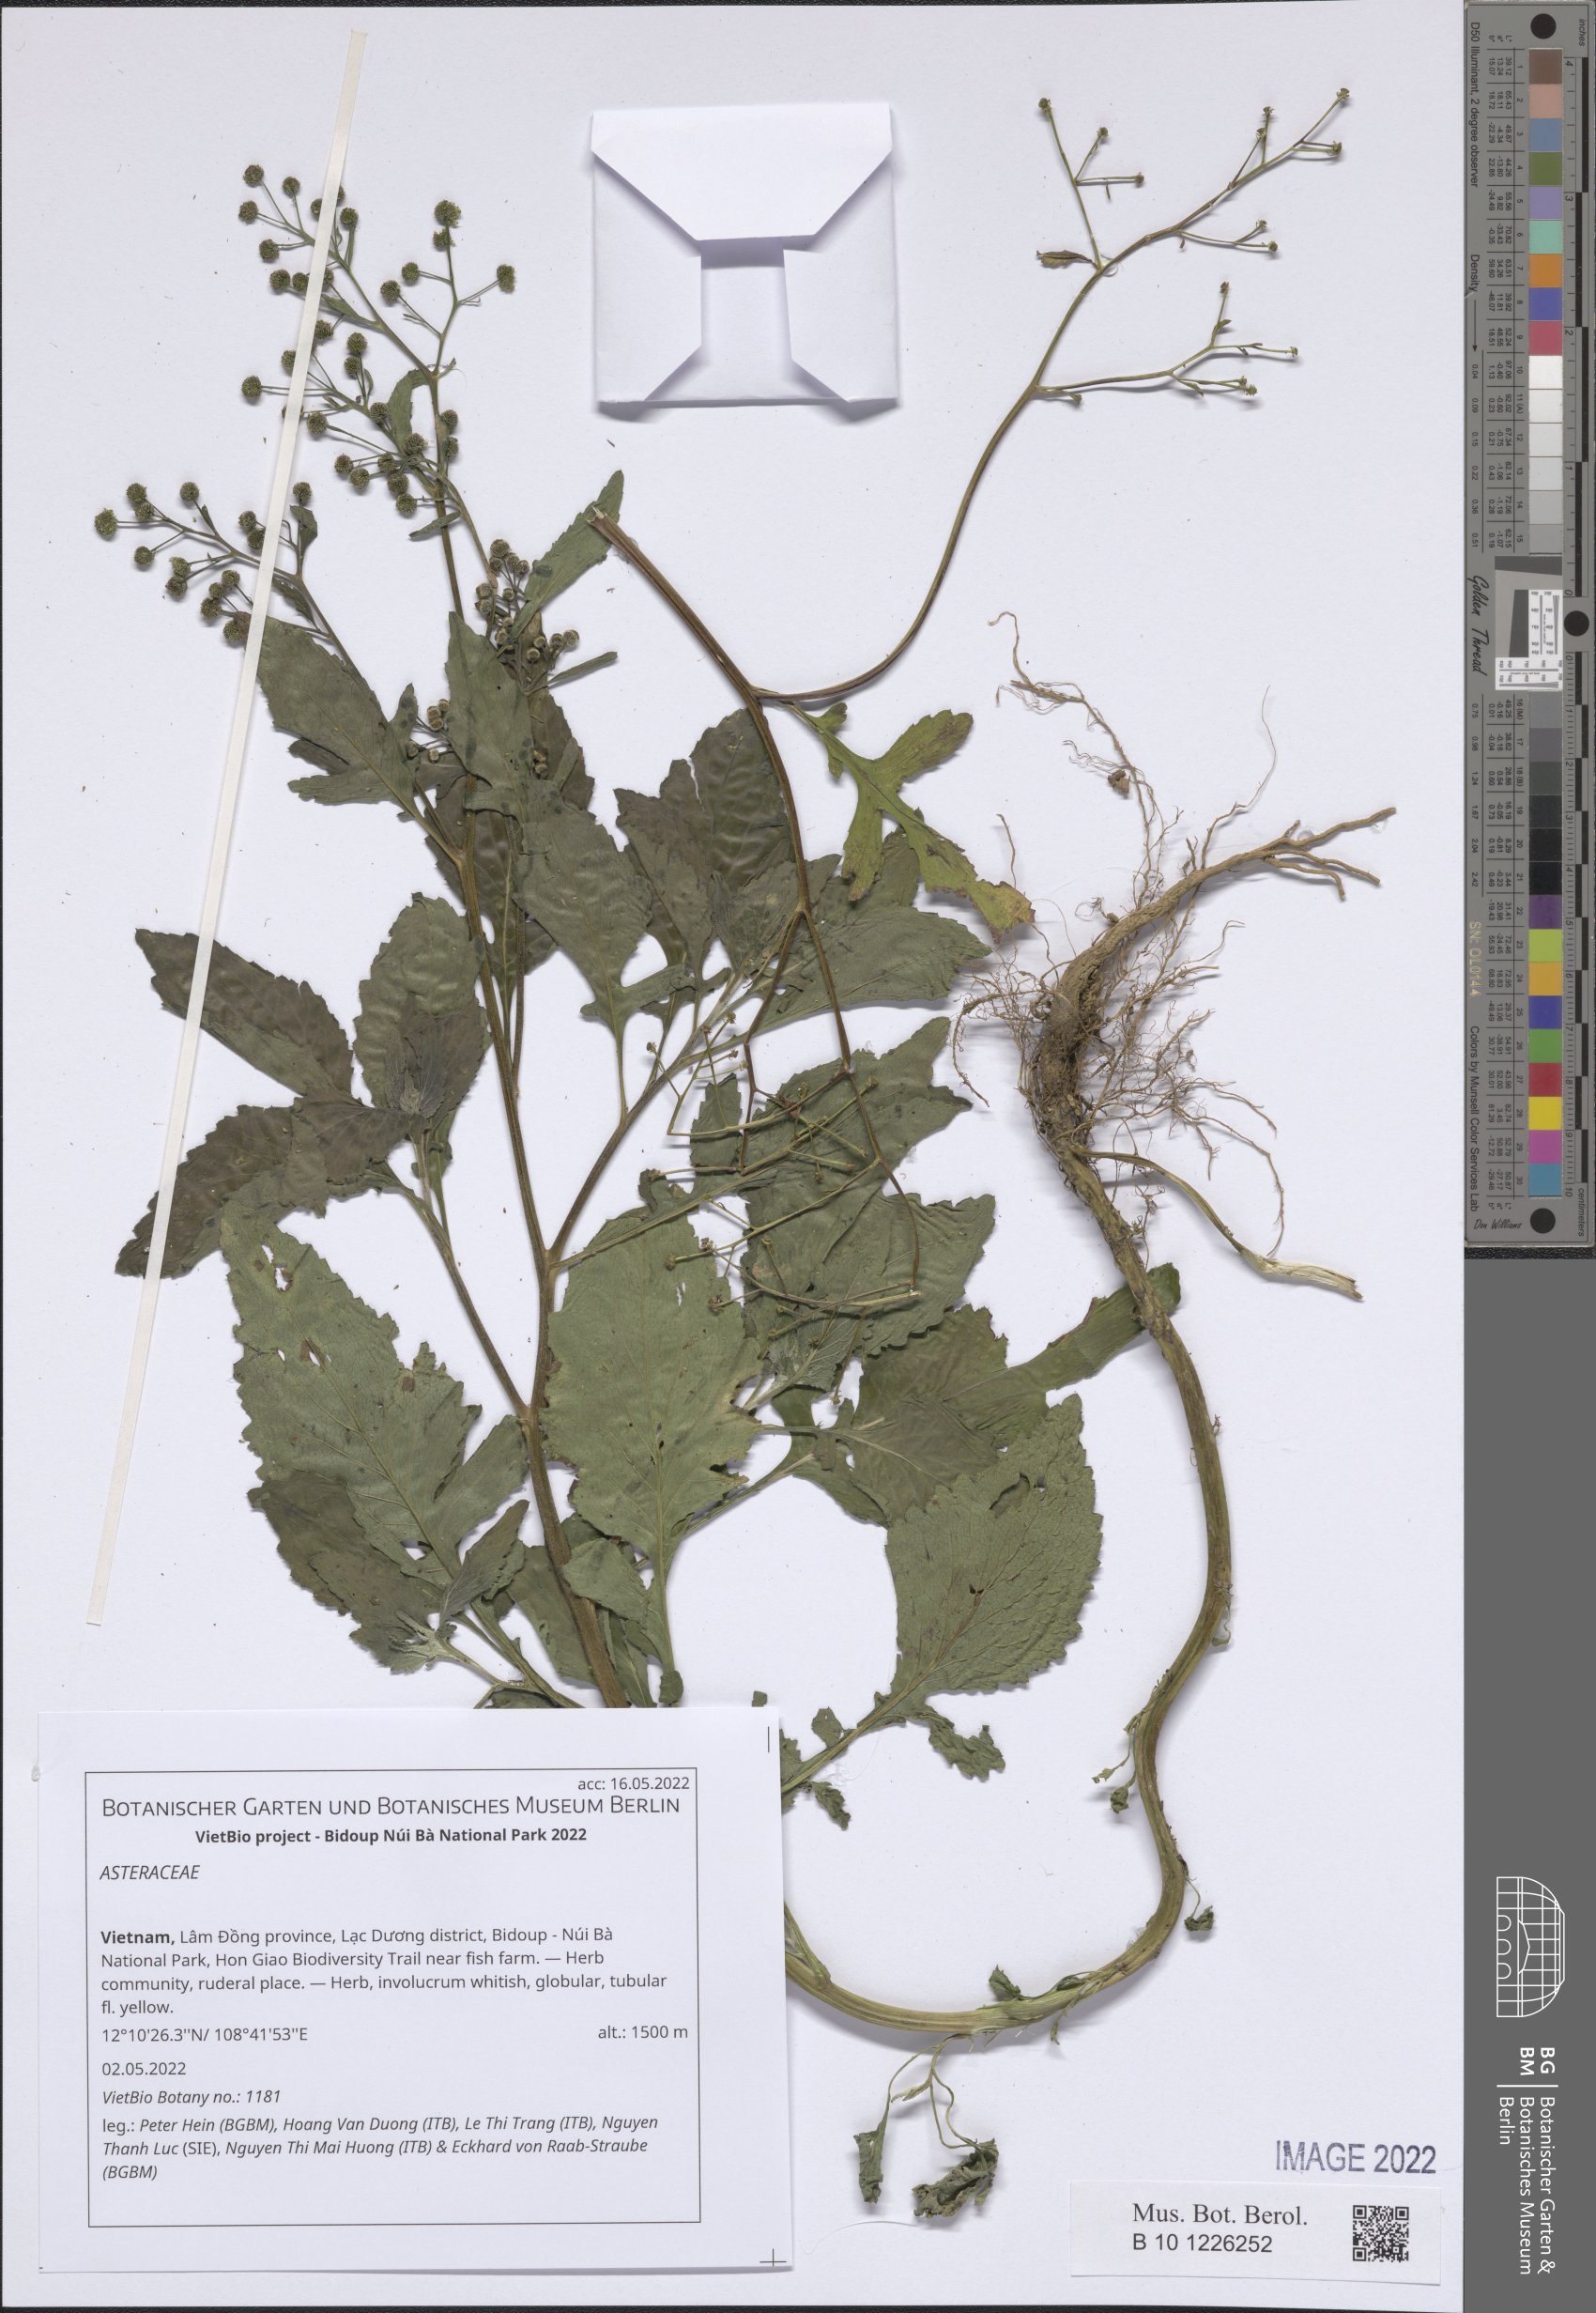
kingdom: Plantae
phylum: Tracheophyta
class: Magnoliopsida
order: Asterales
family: Asteraceae
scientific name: Asteraceae
